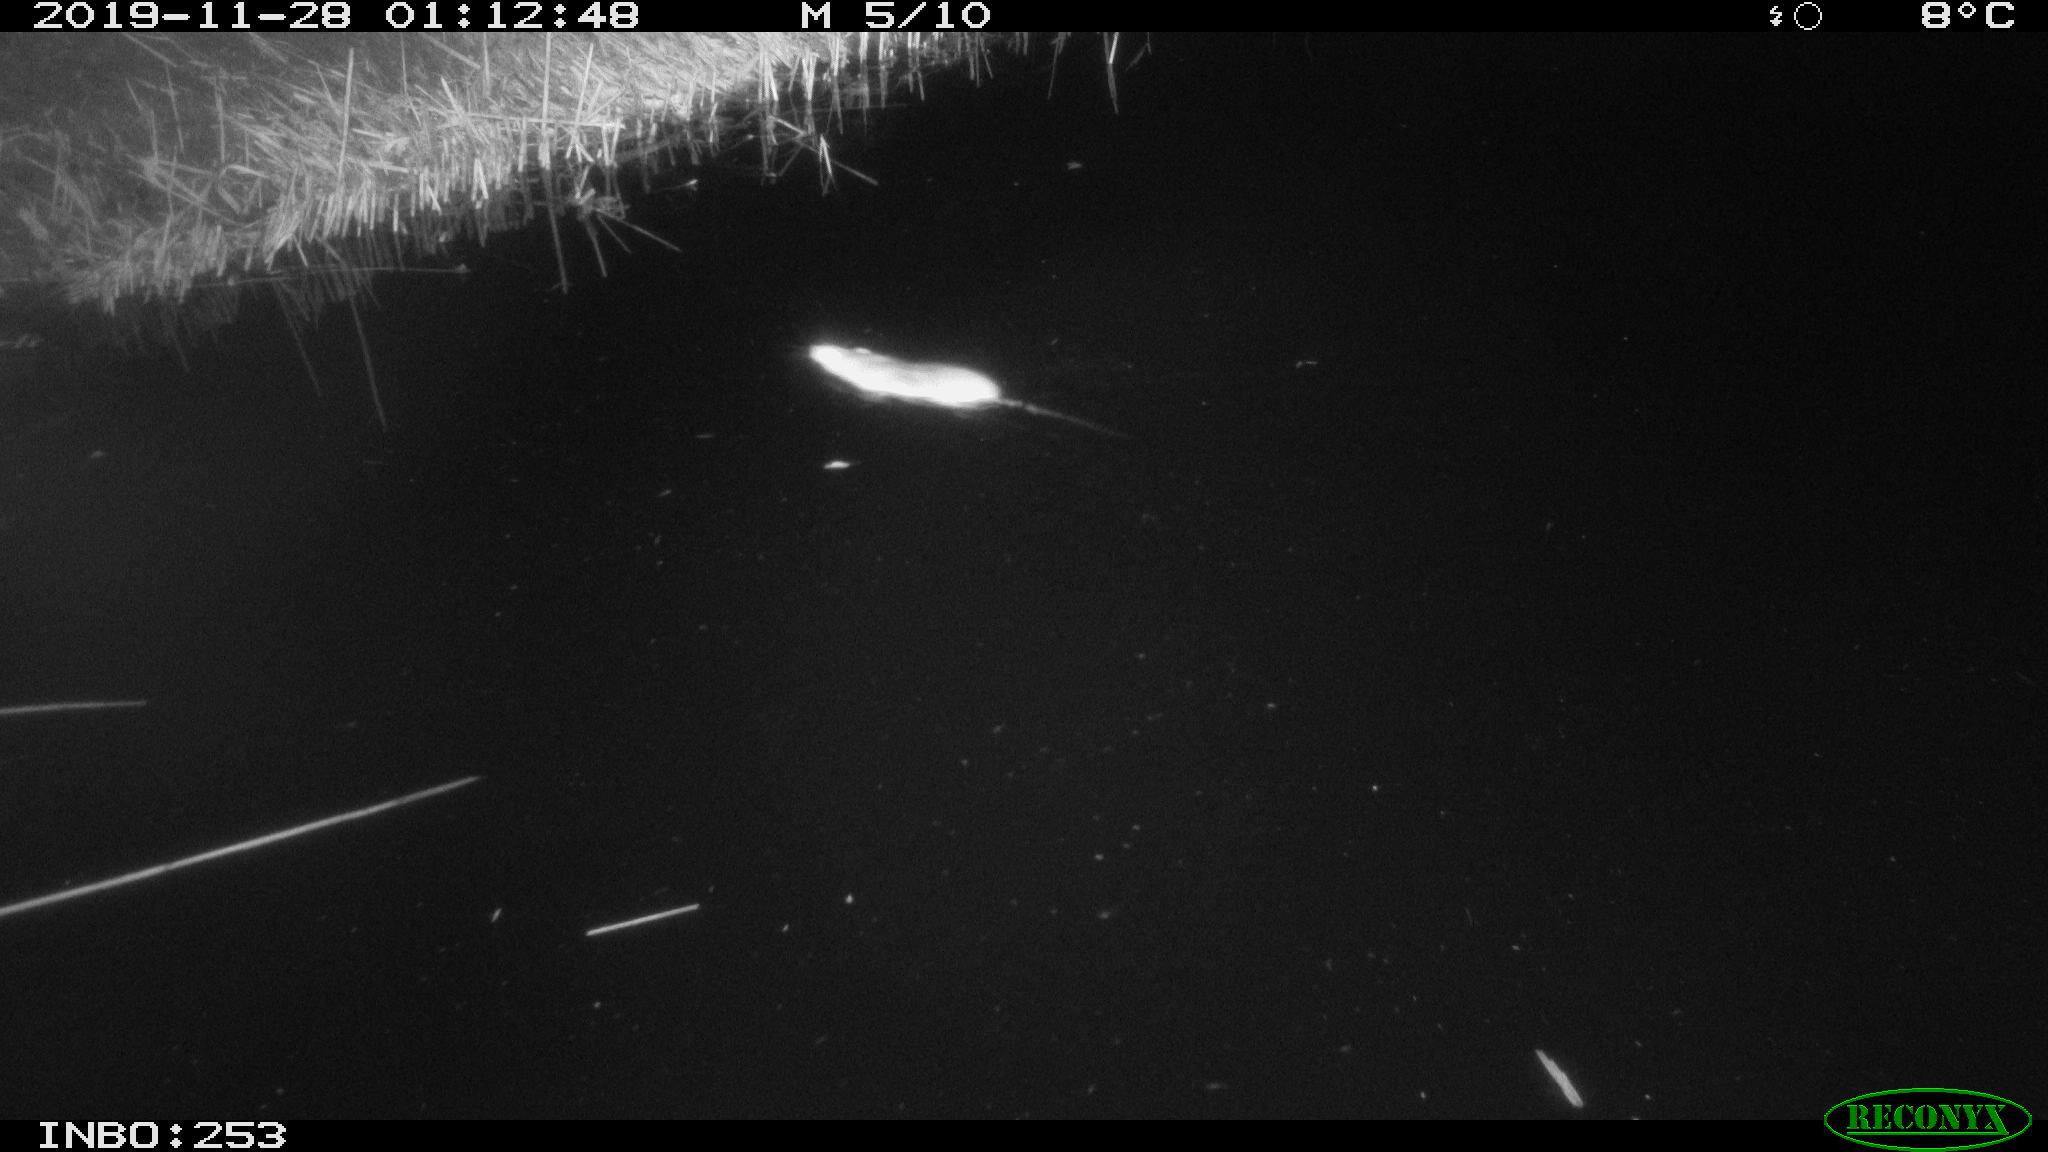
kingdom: Animalia
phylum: Chordata
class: Mammalia
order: Rodentia
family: Muridae
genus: Rattus
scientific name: Rattus norvegicus
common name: Brown rat
